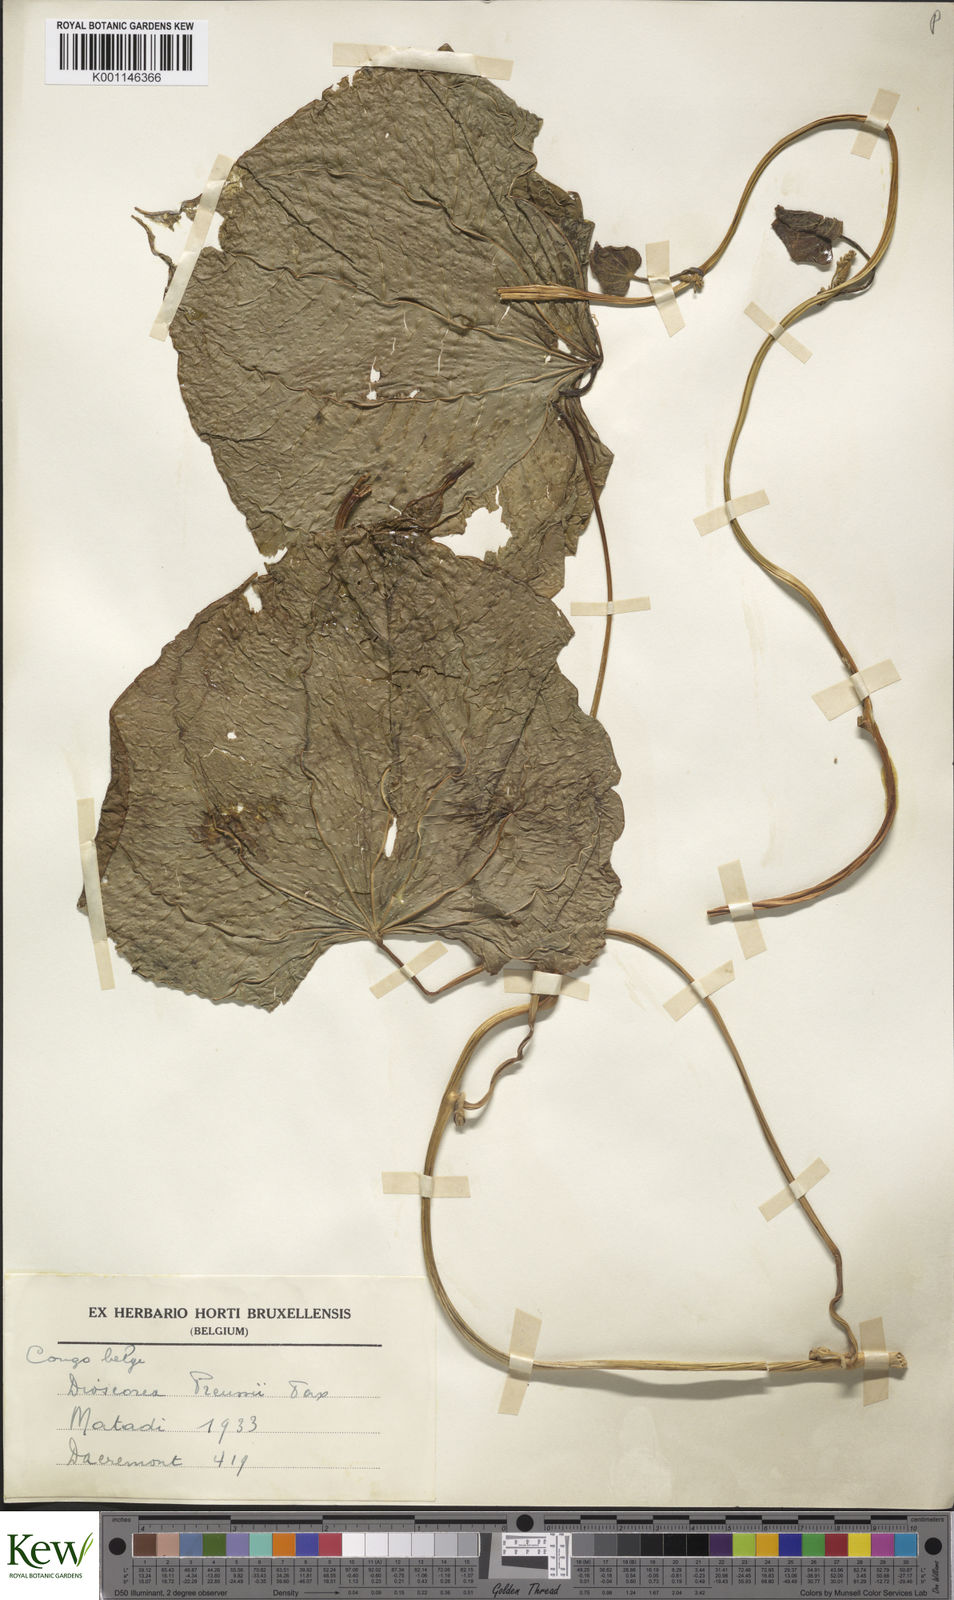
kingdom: Plantae
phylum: Tracheophyta
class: Liliopsida
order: Dioscoreales
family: Dioscoreaceae
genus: Dioscorea
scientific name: Dioscorea preussii
